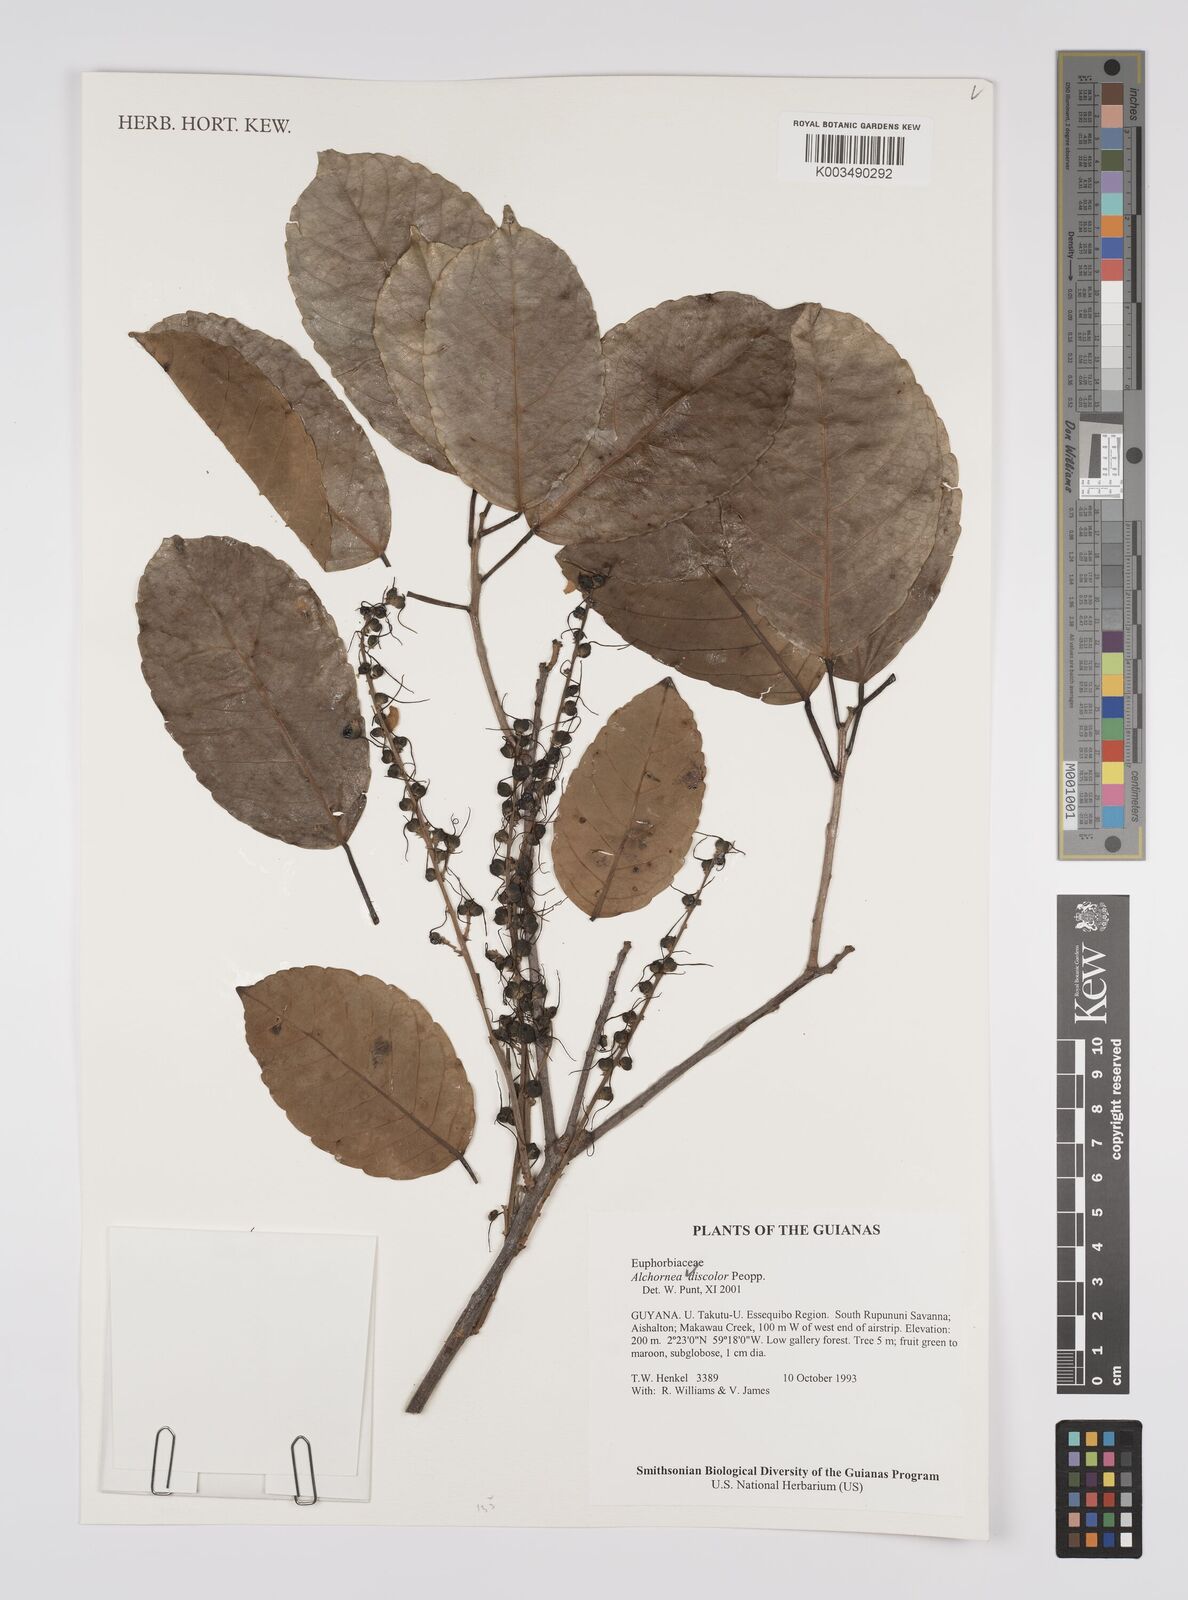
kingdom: Plantae
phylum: Tracheophyta
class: Magnoliopsida
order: Malpighiales
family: Euphorbiaceae
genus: Alchornea
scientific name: Alchornea discolor
